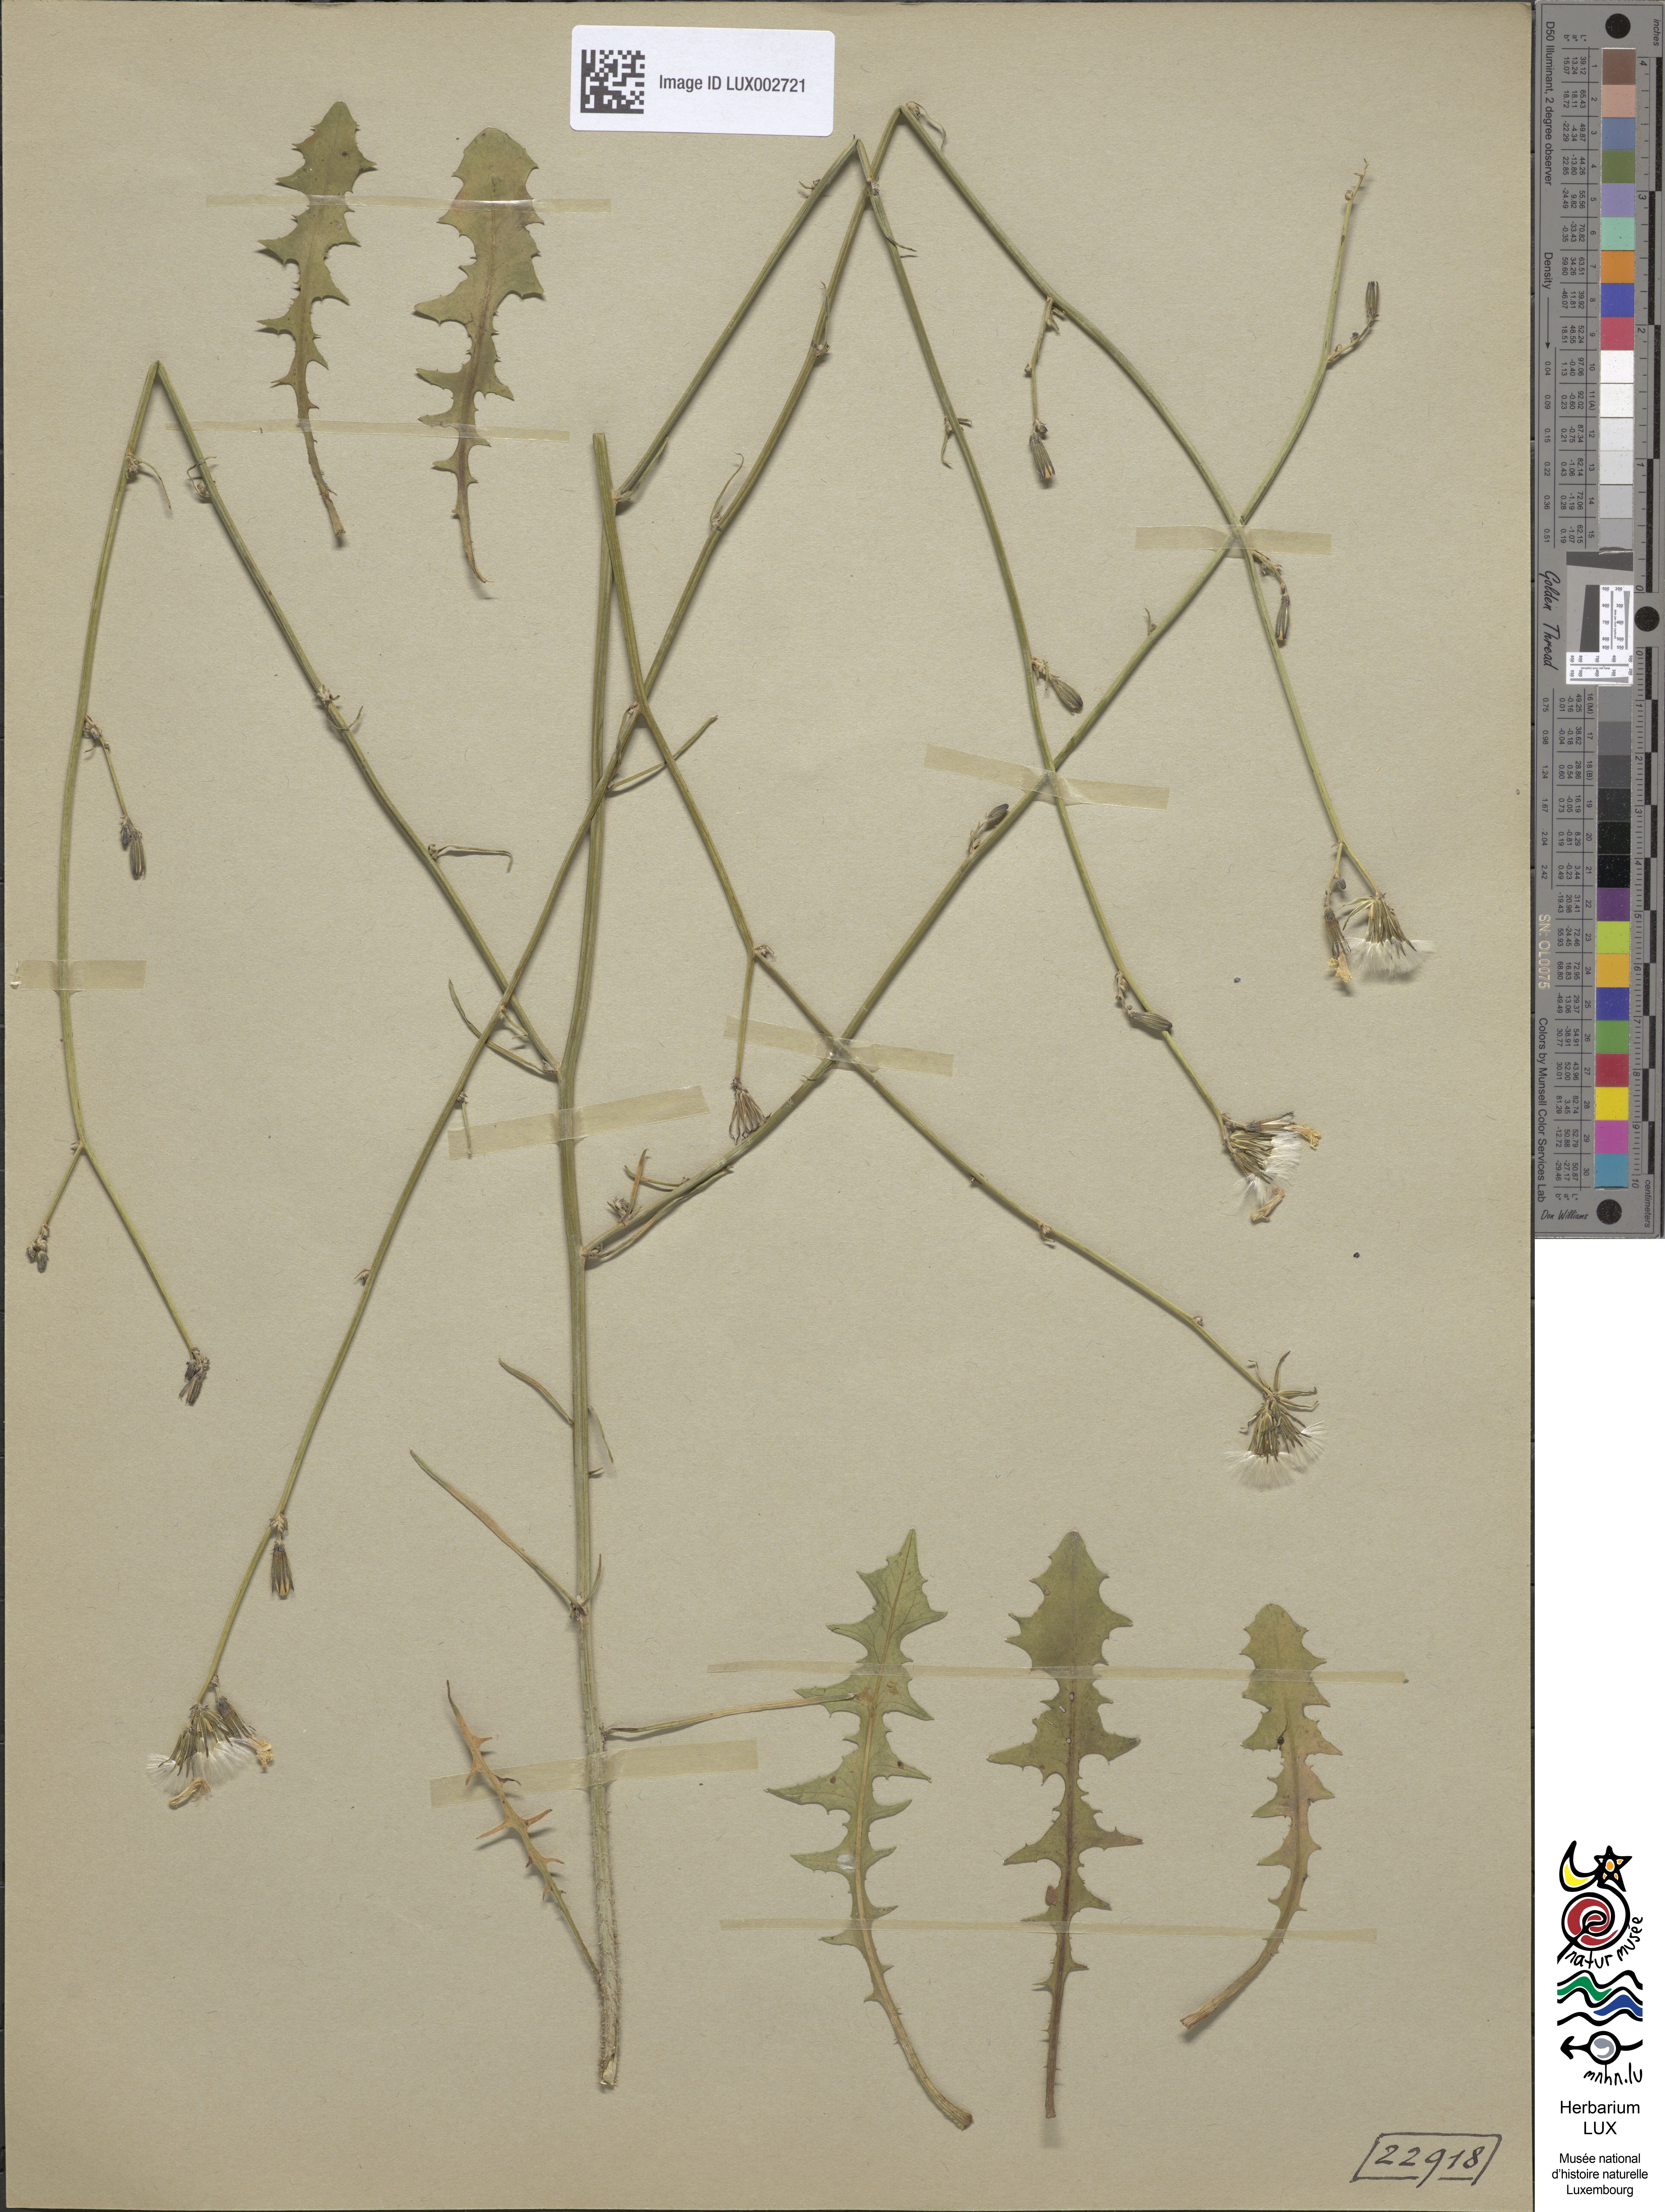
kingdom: Plantae
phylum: Tracheophyta
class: Magnoliopsida
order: Asterales
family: Asteraceae
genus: Chondrilla
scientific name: Chondrilla juncea
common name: Skeleton weed
